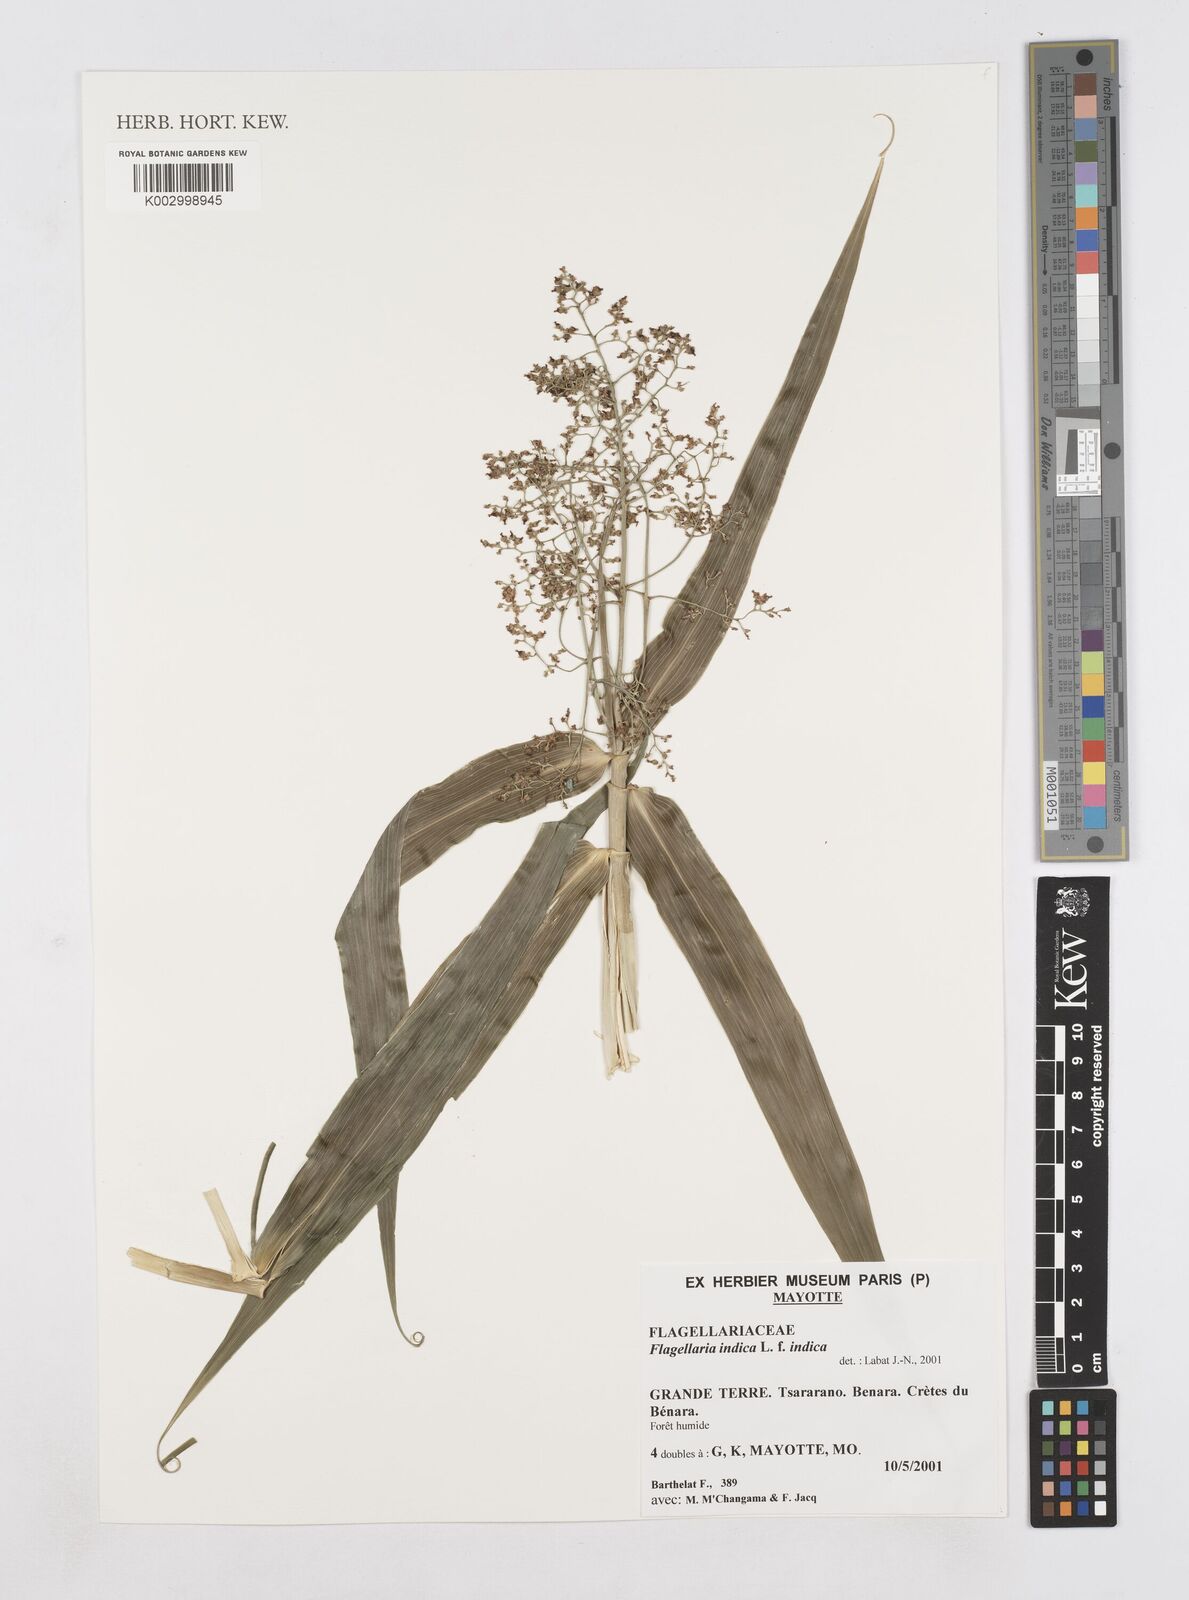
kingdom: Plantae
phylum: Tracheophyta
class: Liliopsida
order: Poales
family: Flagellariaceae
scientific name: Flagellariaceae
